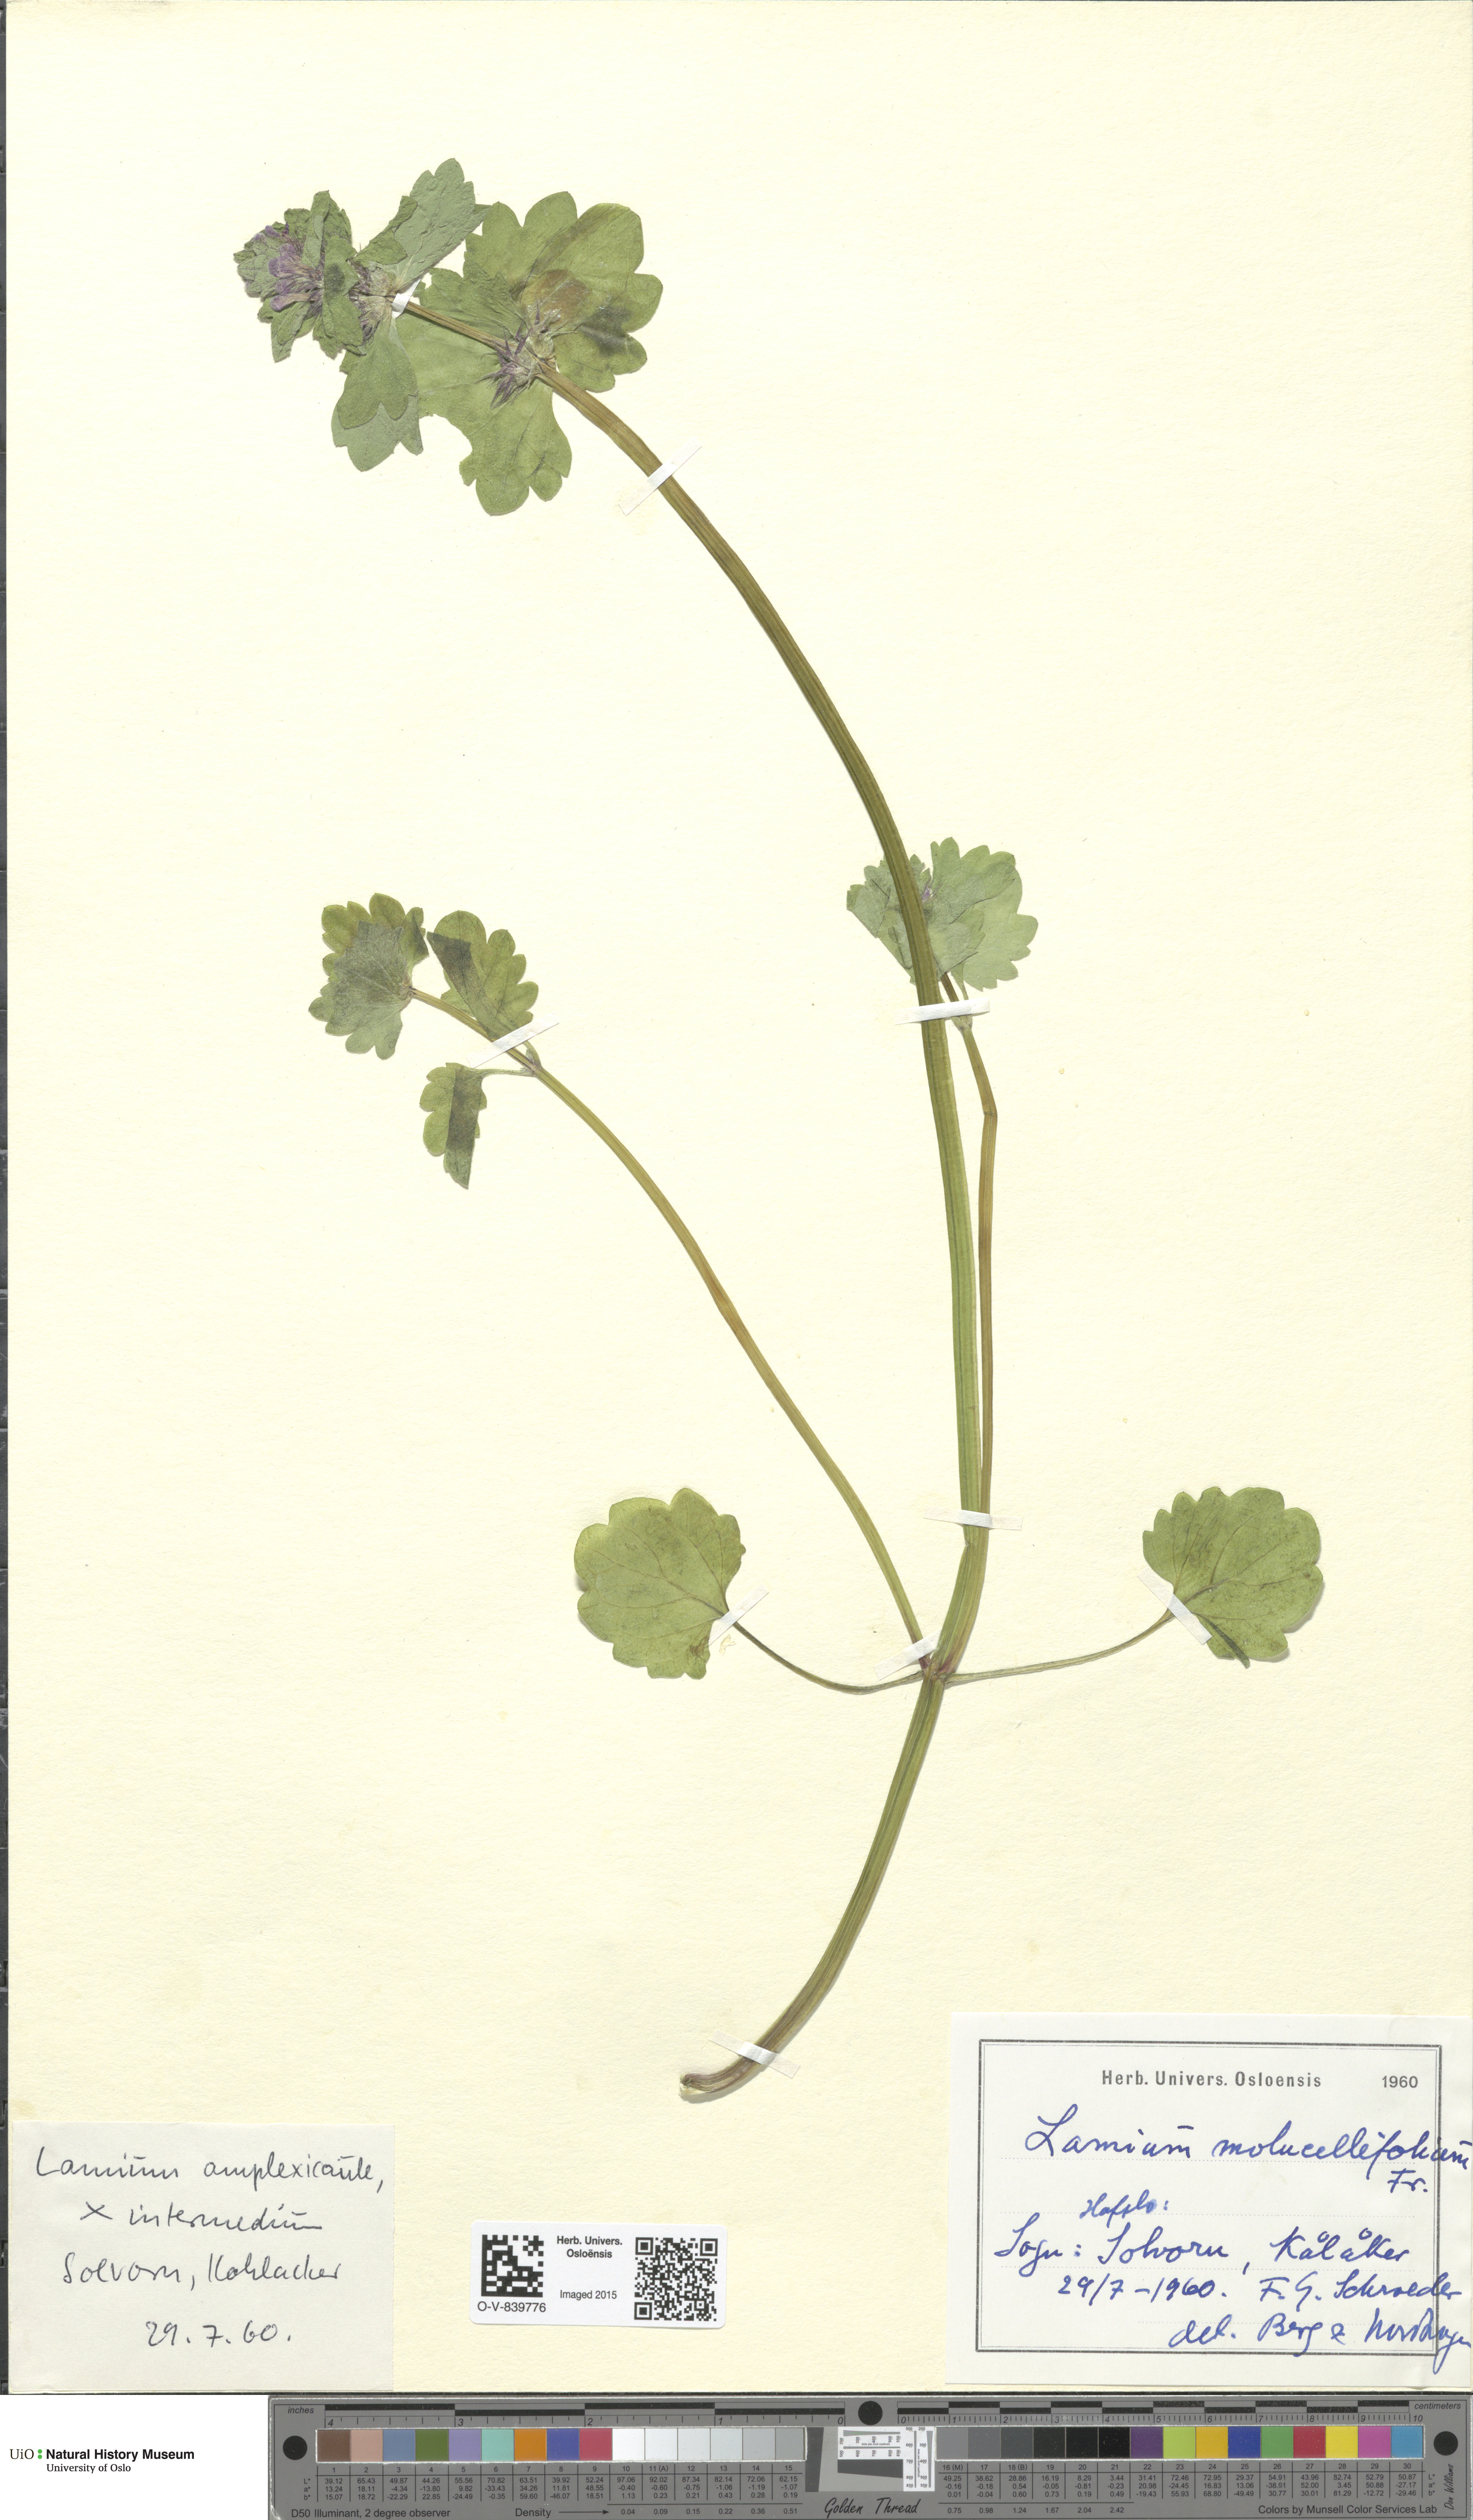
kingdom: Plantae
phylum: Tracheophyta
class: Magnoliopsida
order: Lamiales
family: Lamiaceae
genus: Lamium
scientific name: Lamium confertum
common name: Northern dead-nettle
